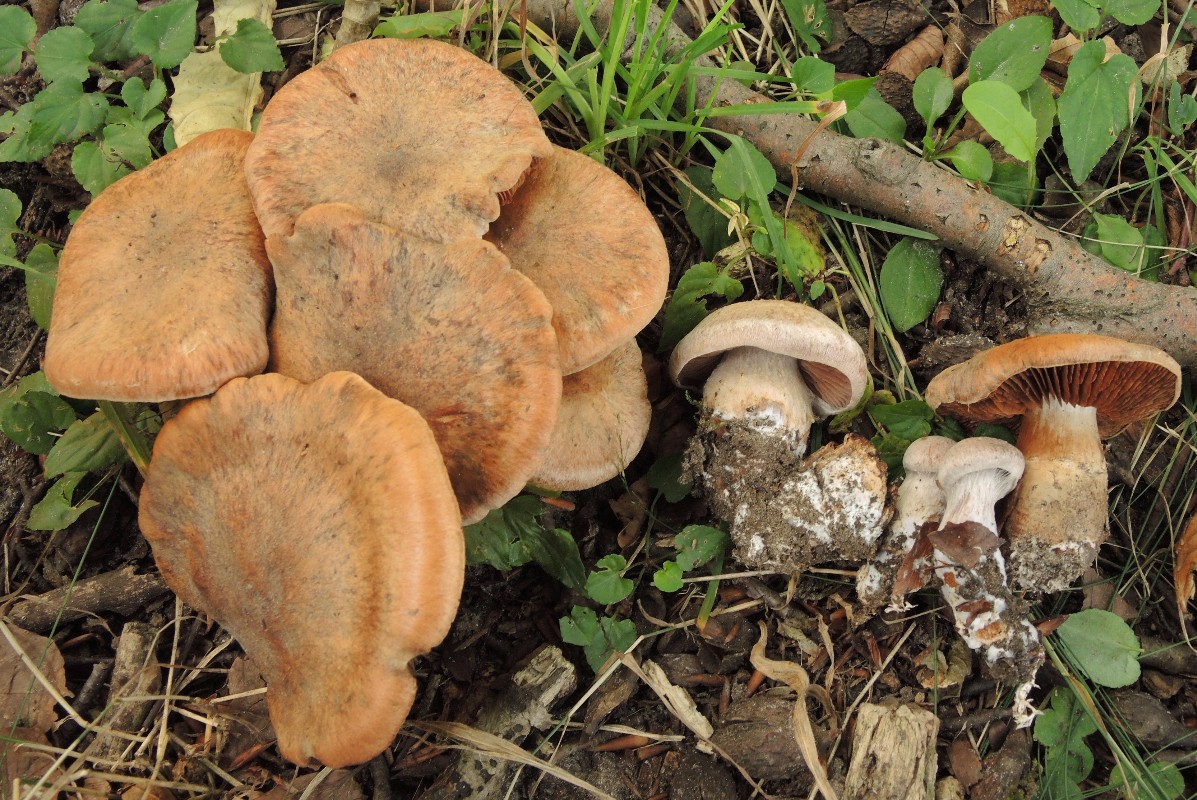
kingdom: Fungi
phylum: Basidiomycota
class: Agaricomycetes
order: Agaricales
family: Cortinariaceae
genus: Cortinarius
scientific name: Cortinarius
